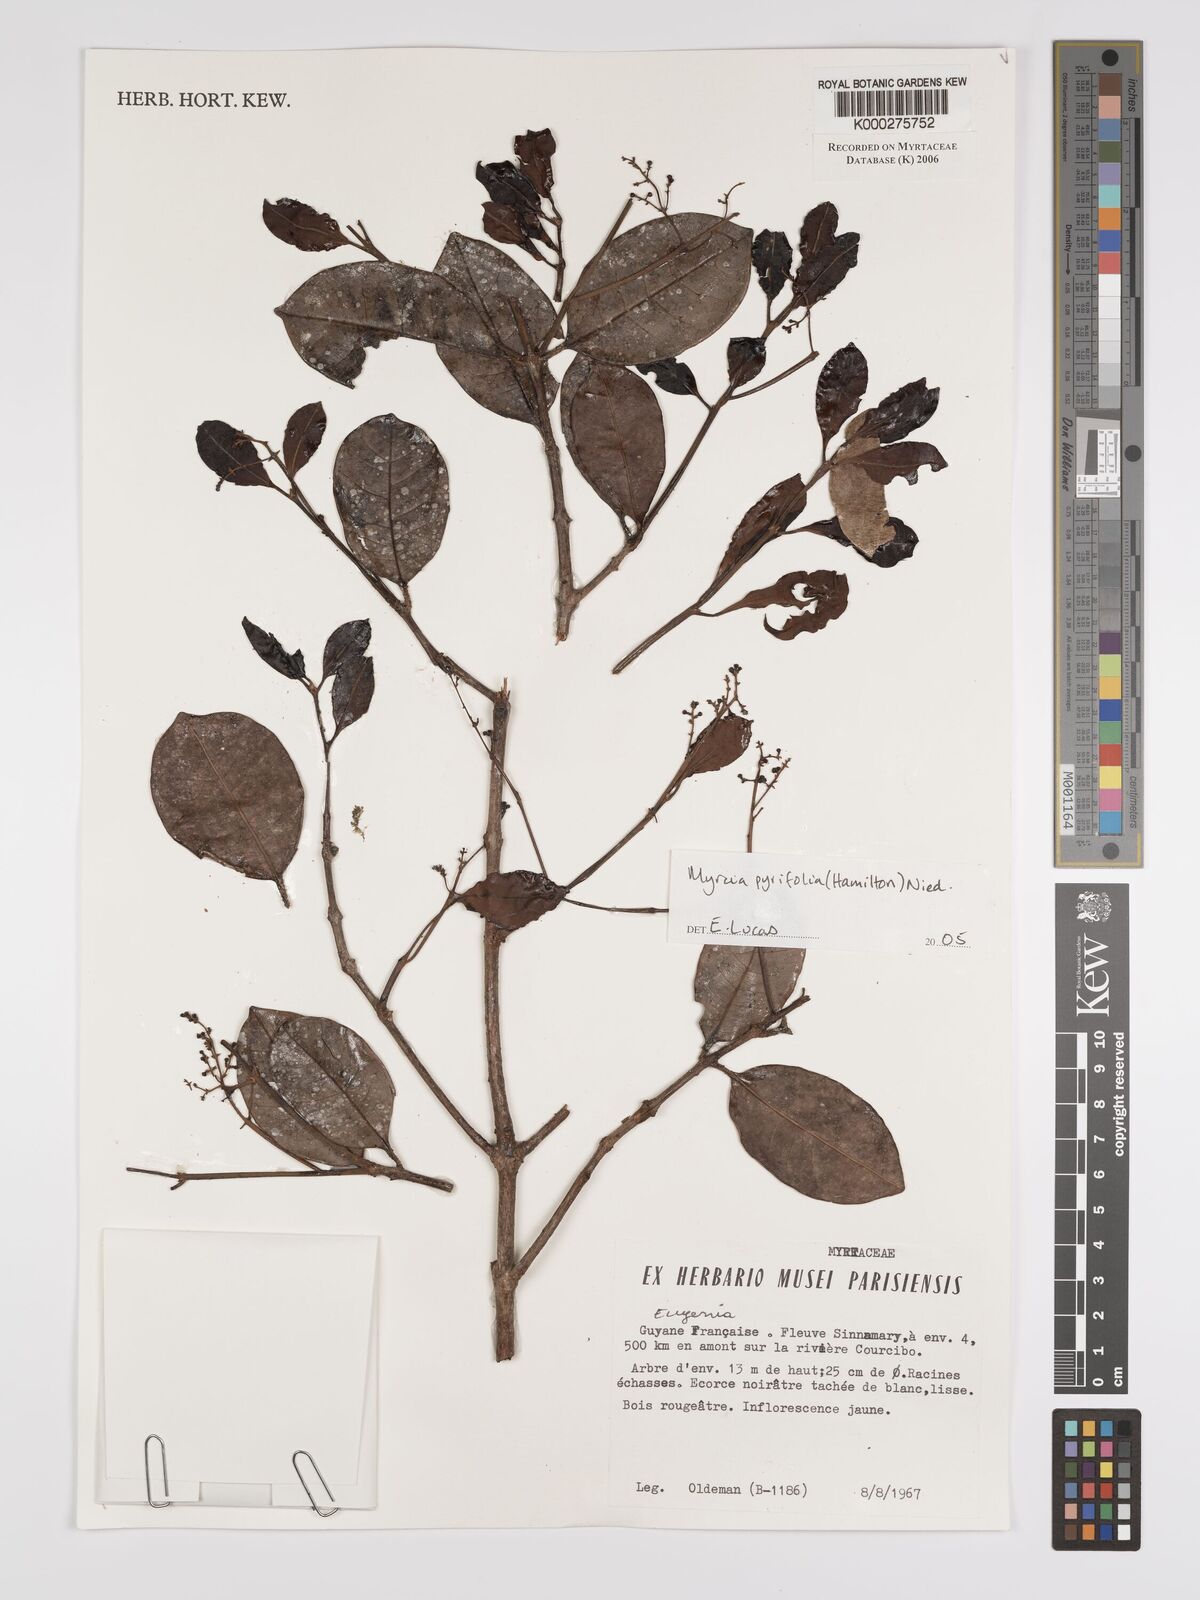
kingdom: Plantae
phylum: Tracheophyta
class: Magnoliopsida
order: Myrtales
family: Myrtaceae
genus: Myrcia
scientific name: Myrcia pyrifolia
